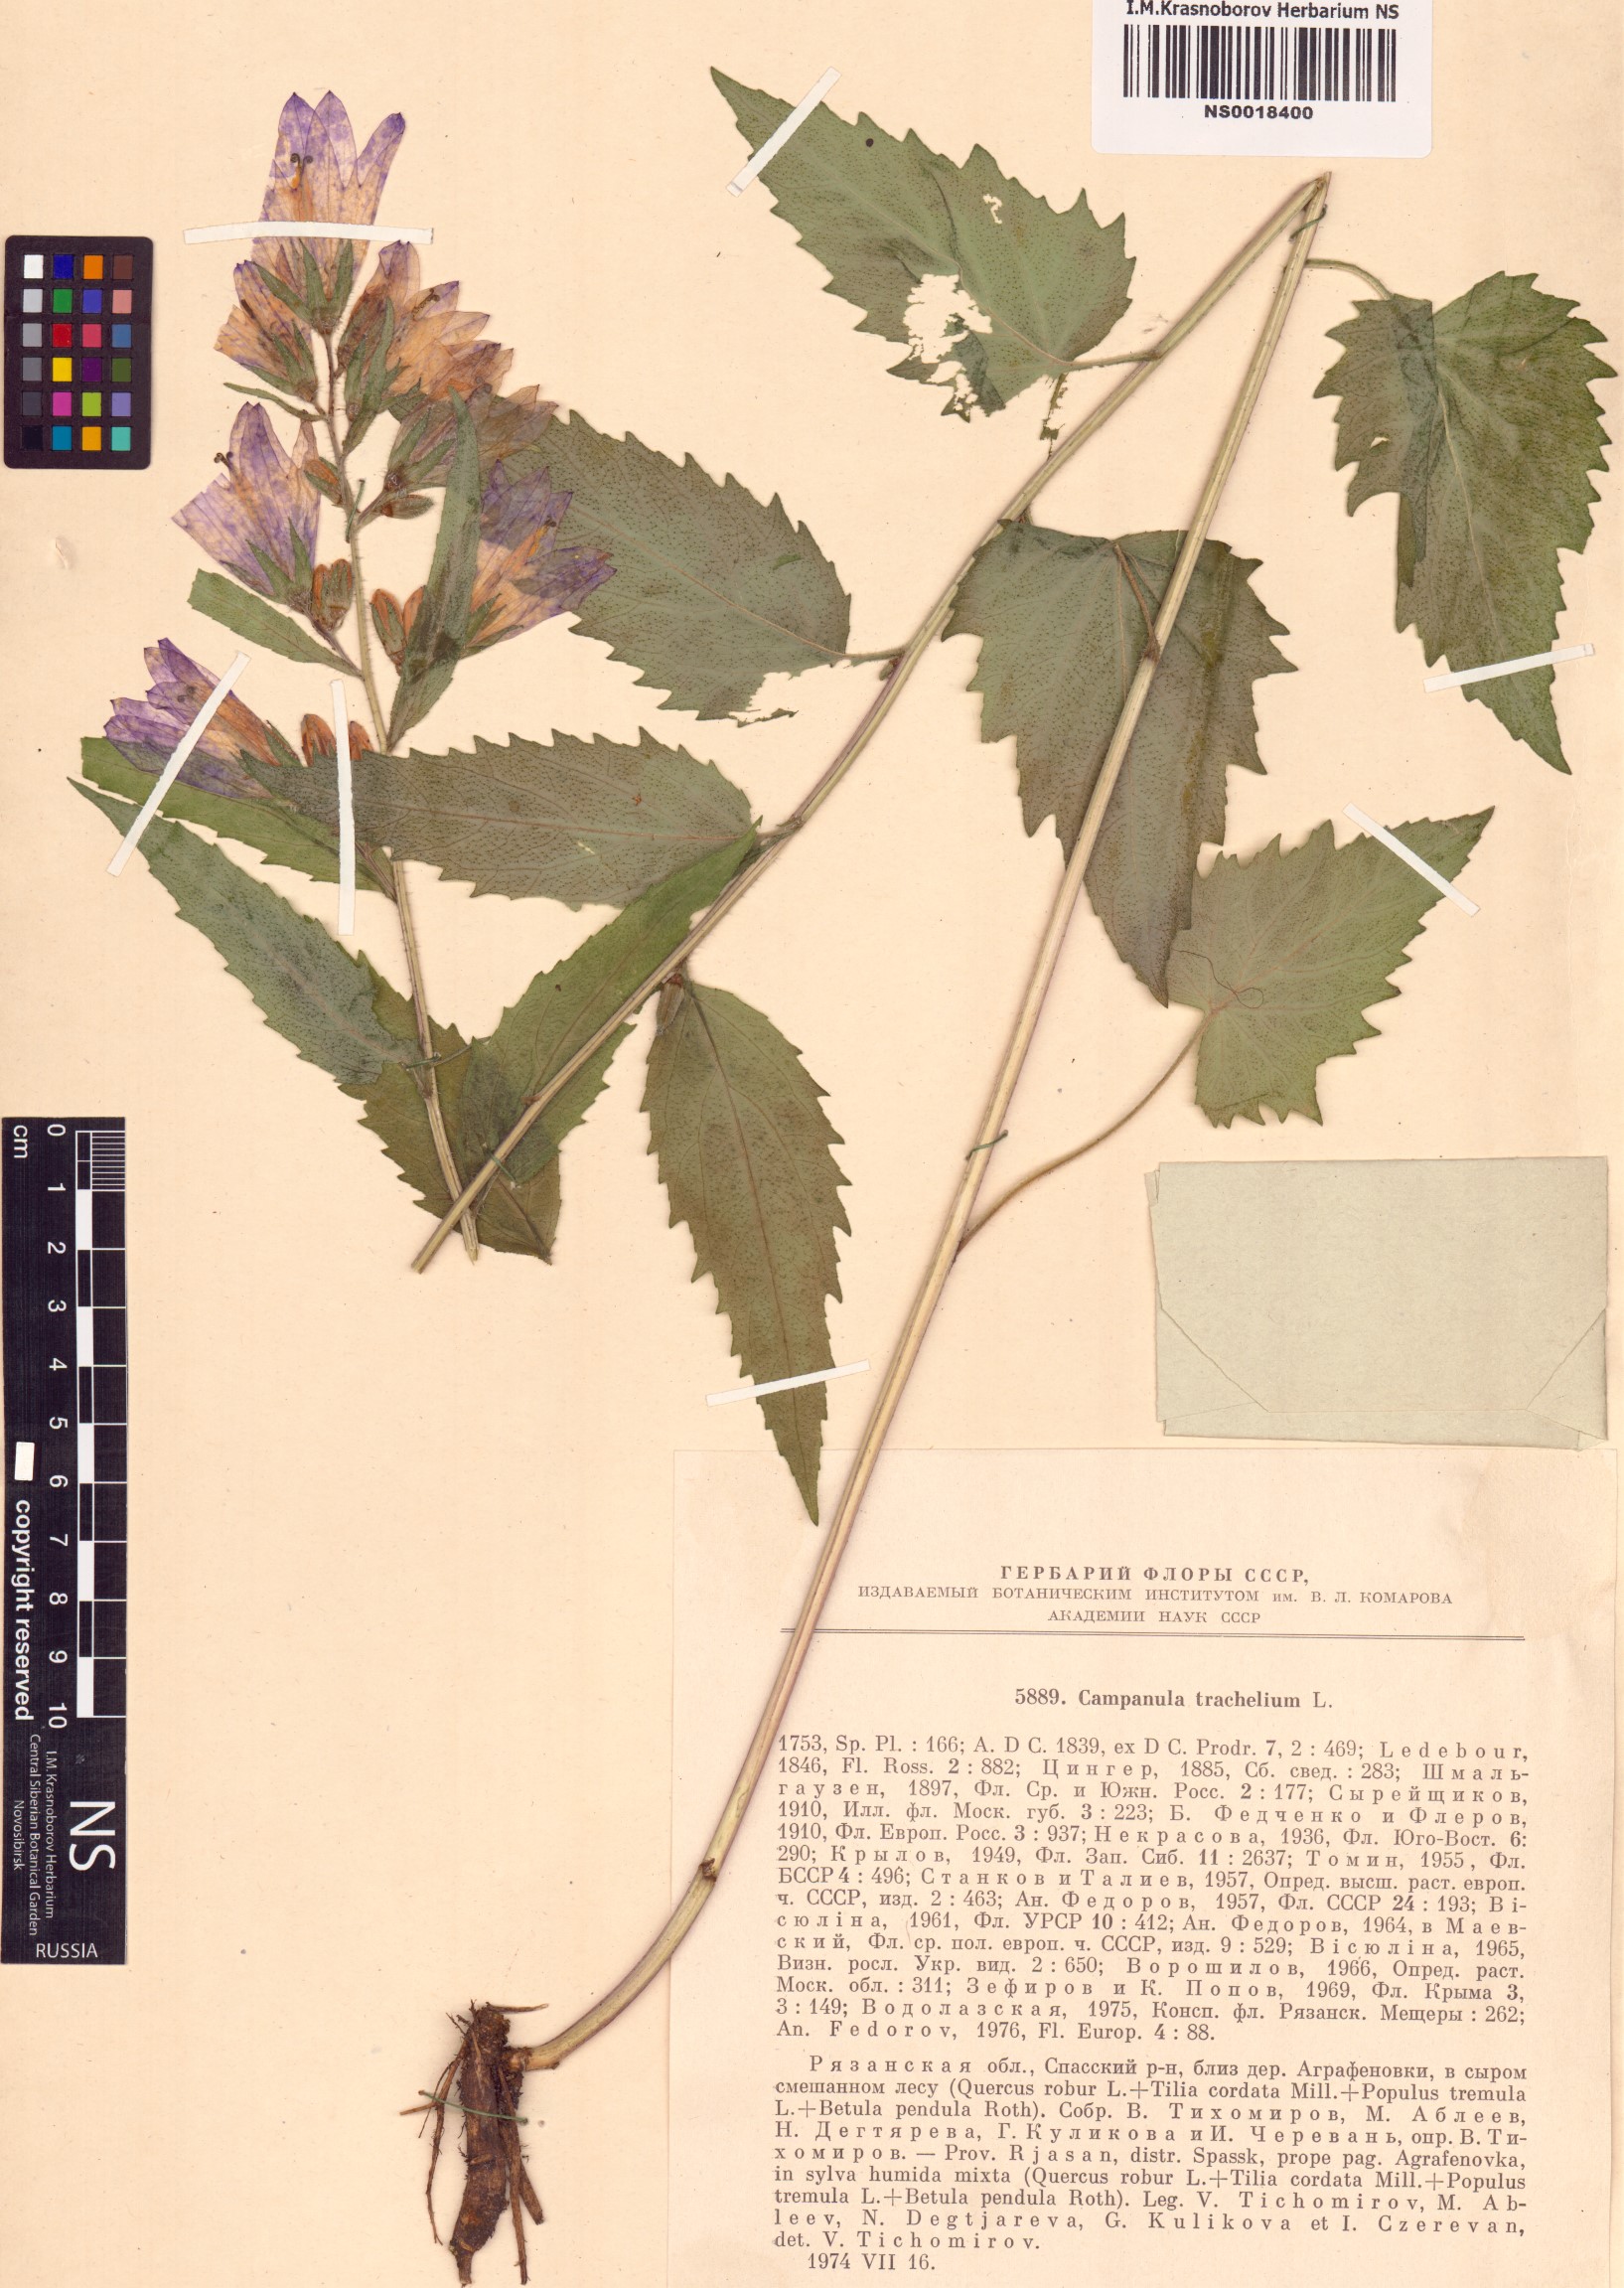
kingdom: Plantae
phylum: Tracheophyta
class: Magnoliopsida
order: Asterales
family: Campanulaceae
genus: Campanula
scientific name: Campanula trachelium
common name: Nettle-leaved bellflower
